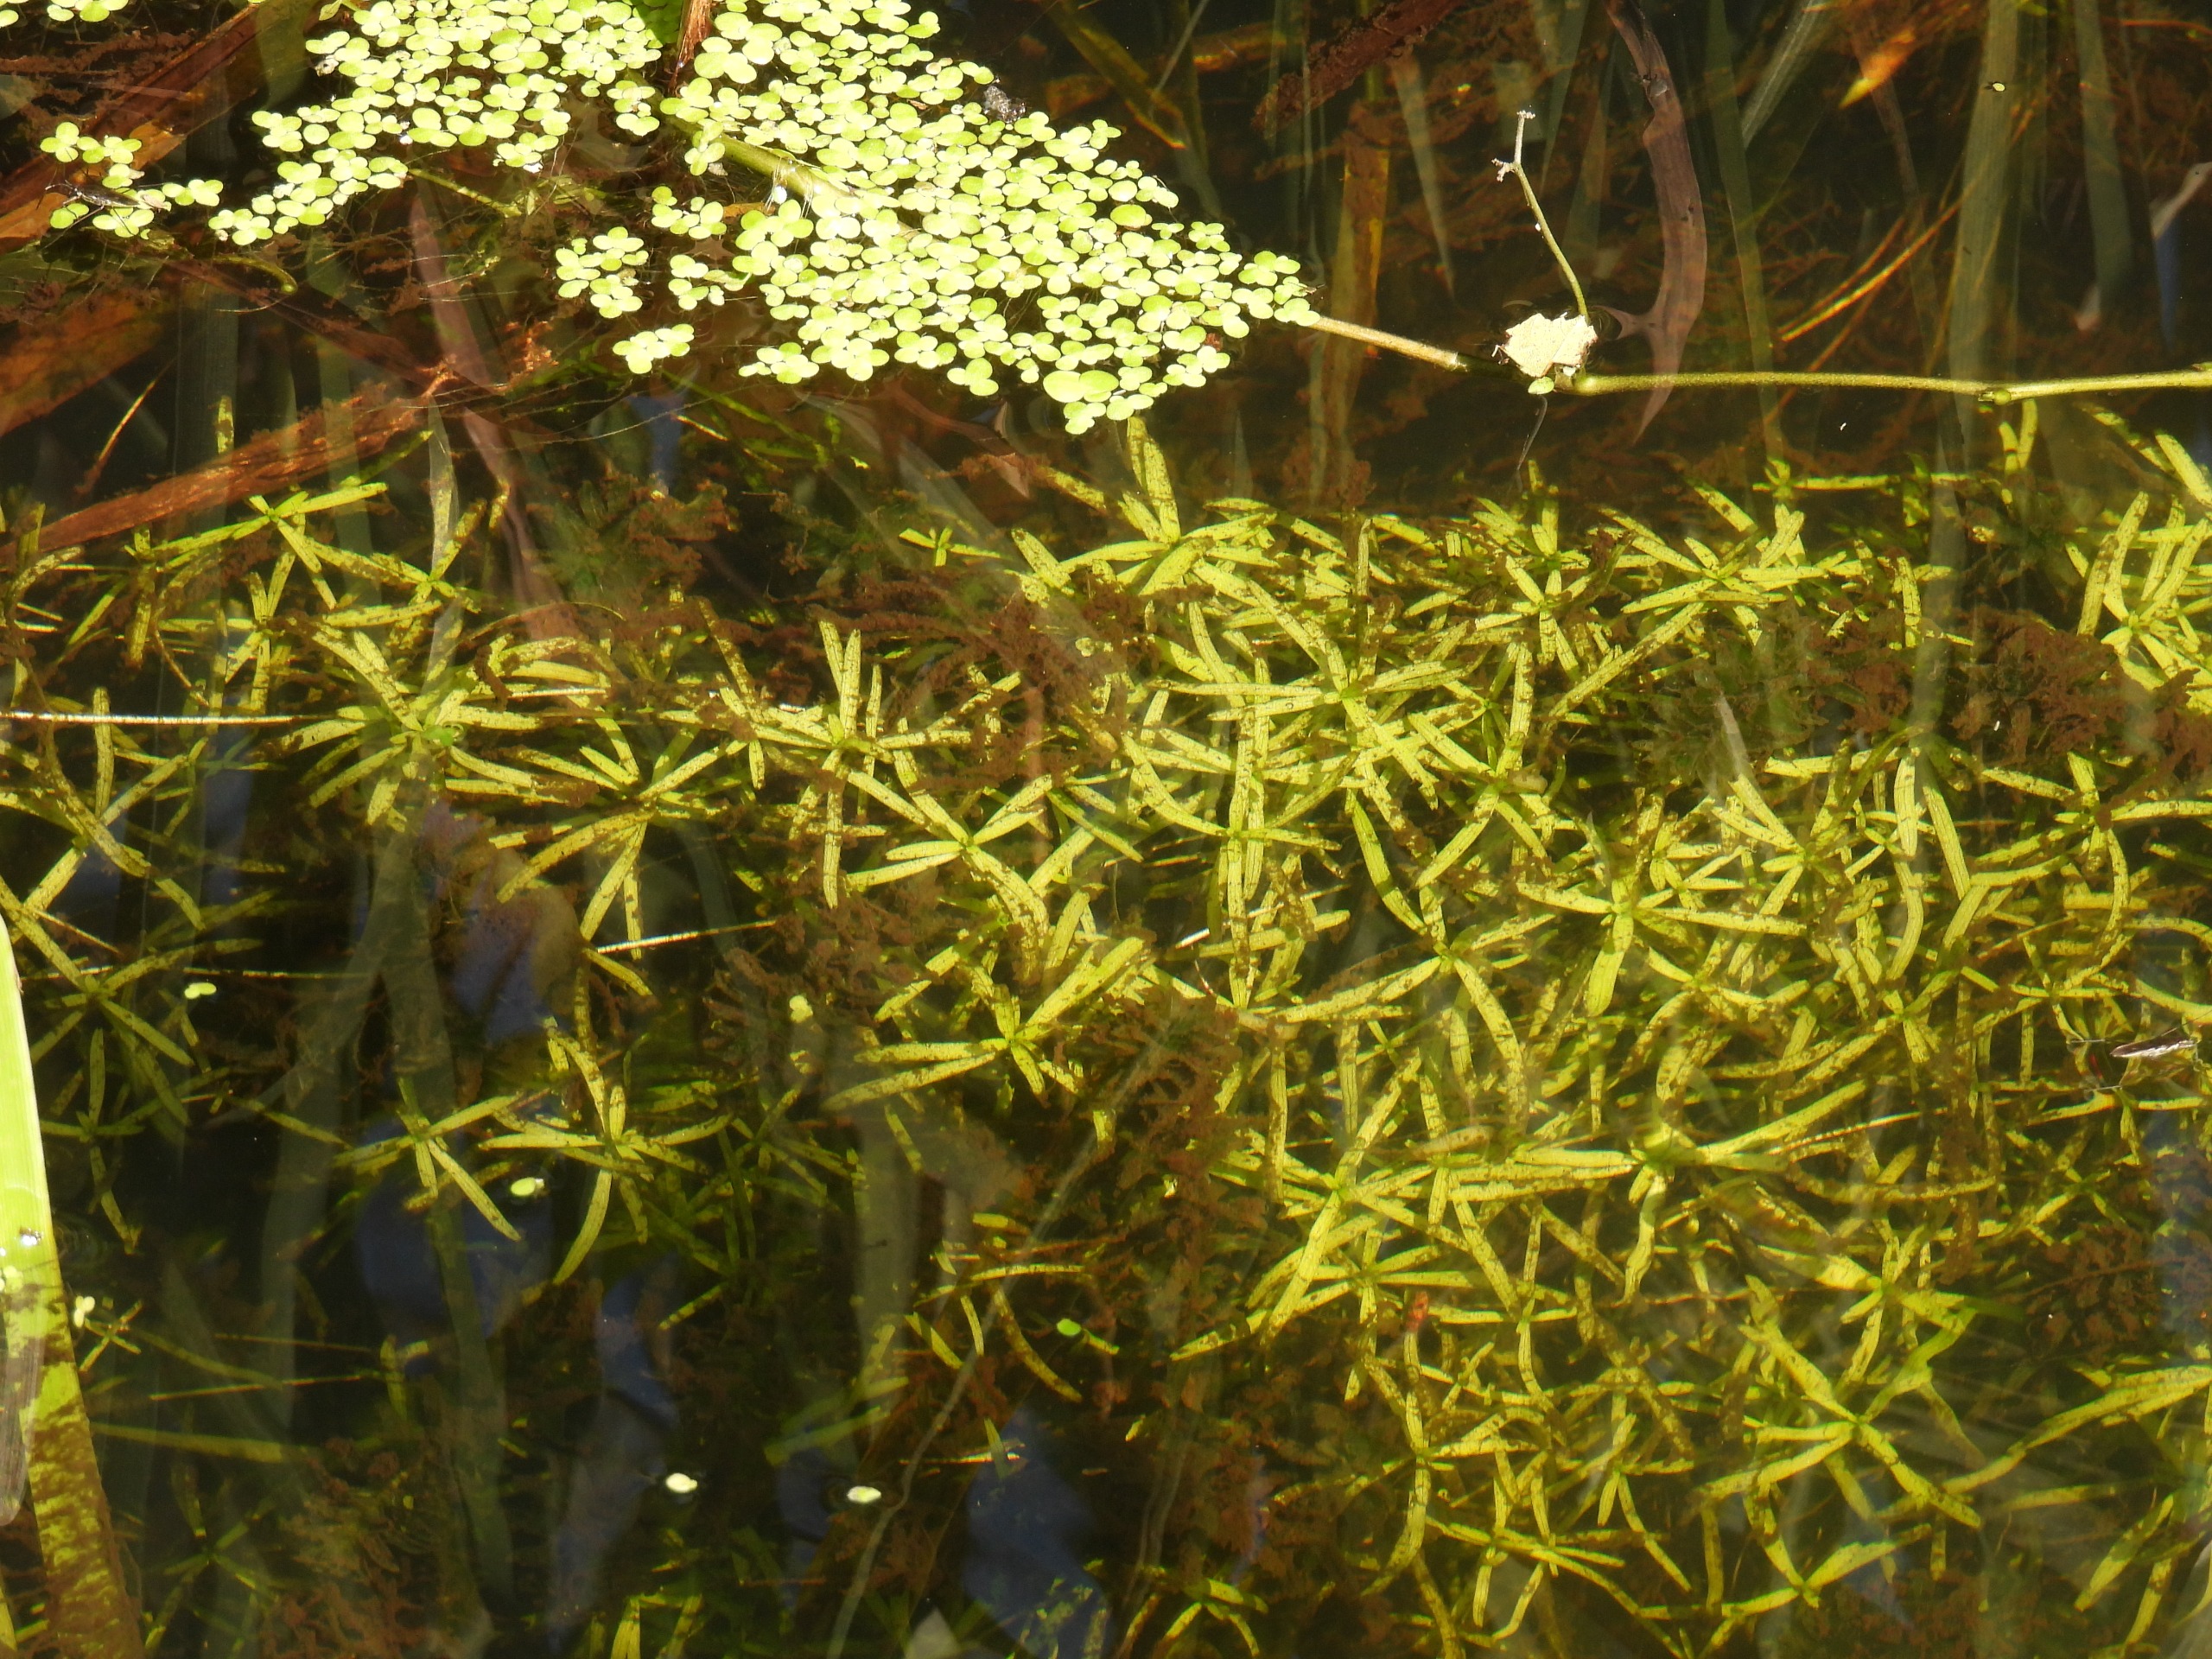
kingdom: Plantae
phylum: Tracheophyta
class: Magnoliopsida
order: Lamiales
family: Plantaginaceae
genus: Callitriche
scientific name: Callitriche
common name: Vandstjerneslægten
